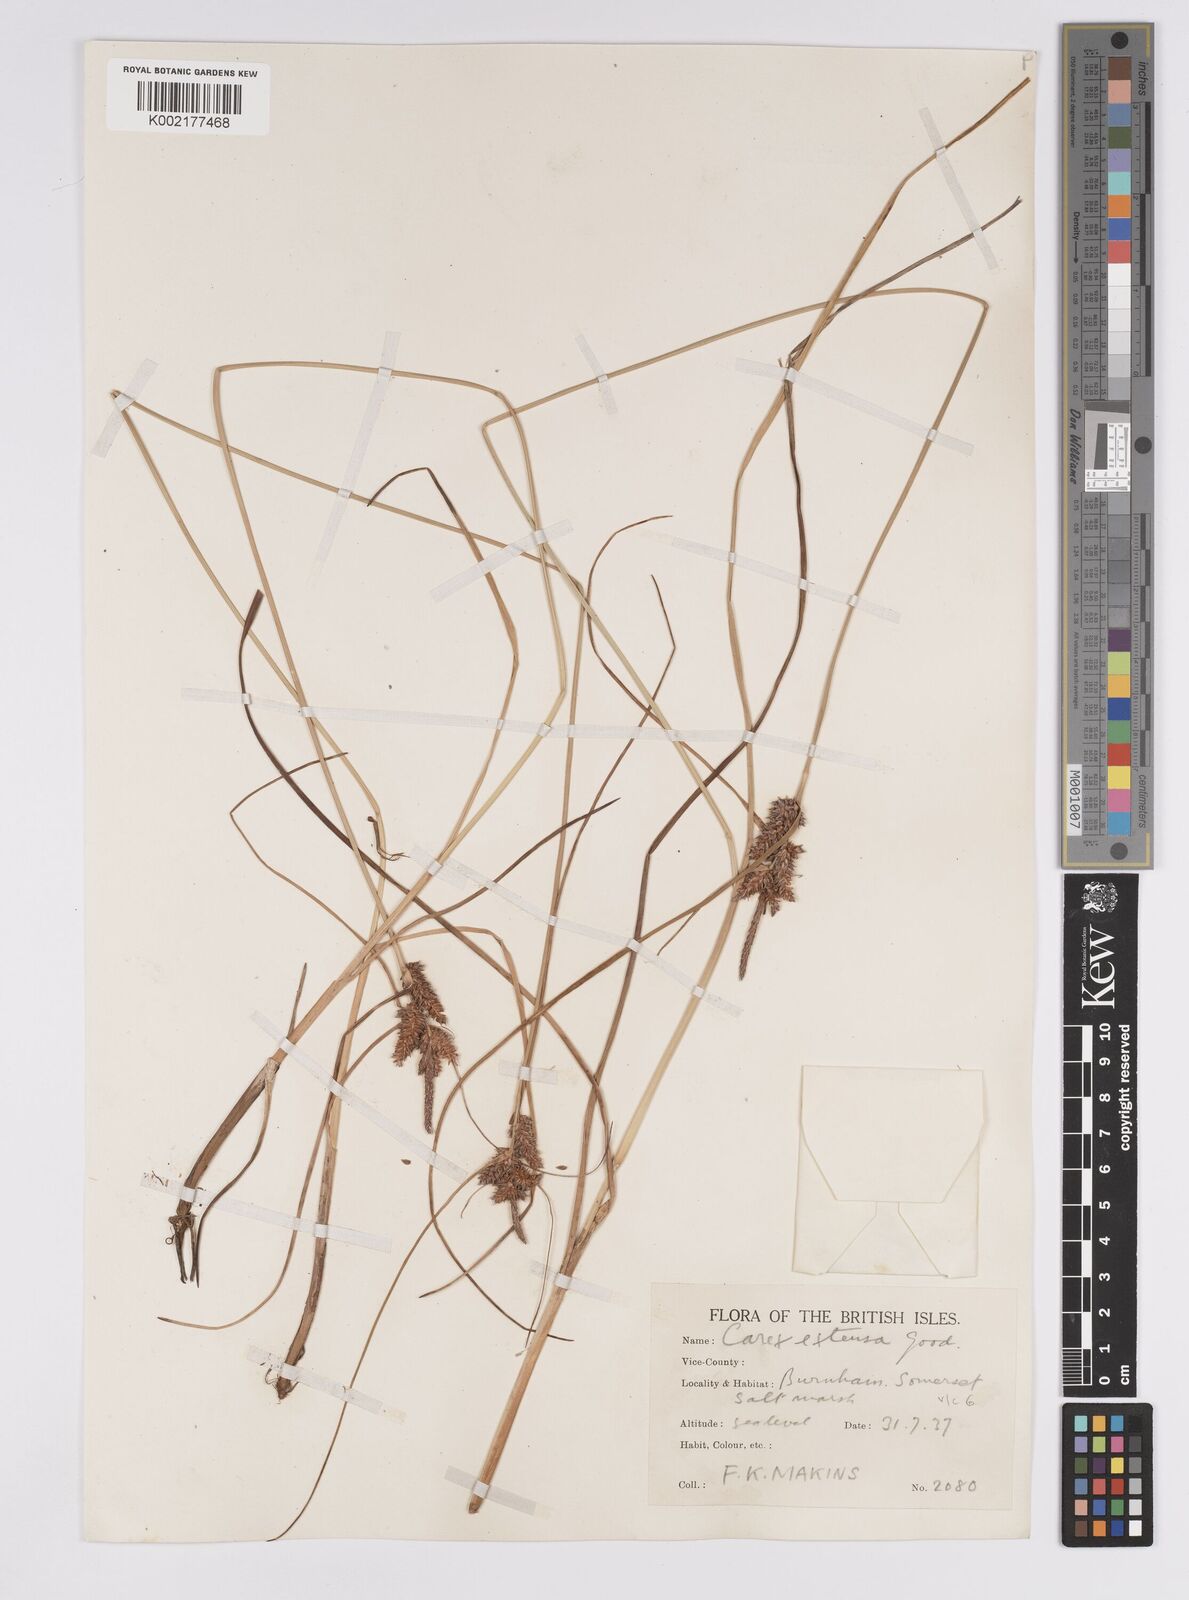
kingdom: Plantae
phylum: Tracheophyta
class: Liliopsida
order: Poales
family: Cyperaceae
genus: Carex
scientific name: Carex extensa
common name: Long-bracted sedge
